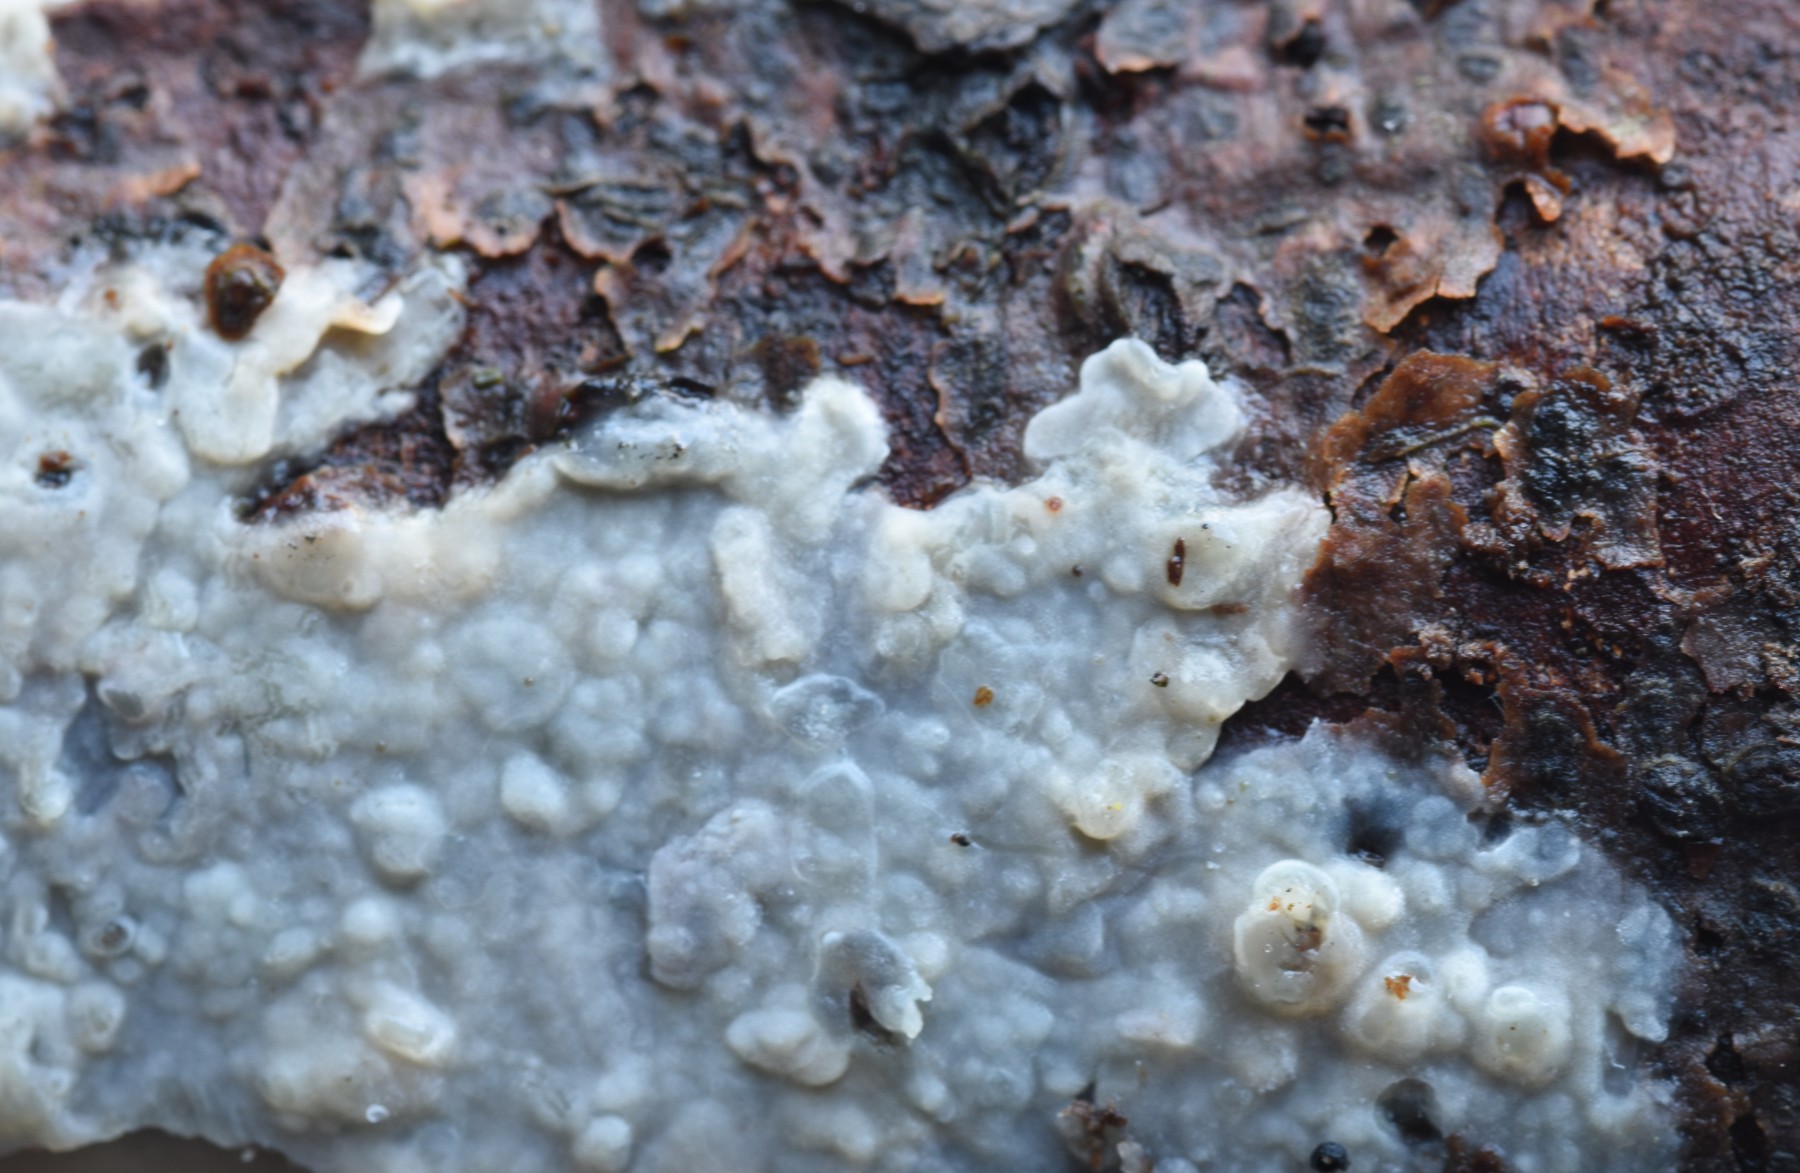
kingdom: Fungi
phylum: Basidiomycota
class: Agaricomycetes
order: Agaricales
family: Radulomycetaceae
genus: Radulomyces
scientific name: Radulomyces confluens
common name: glat naftalinskind
